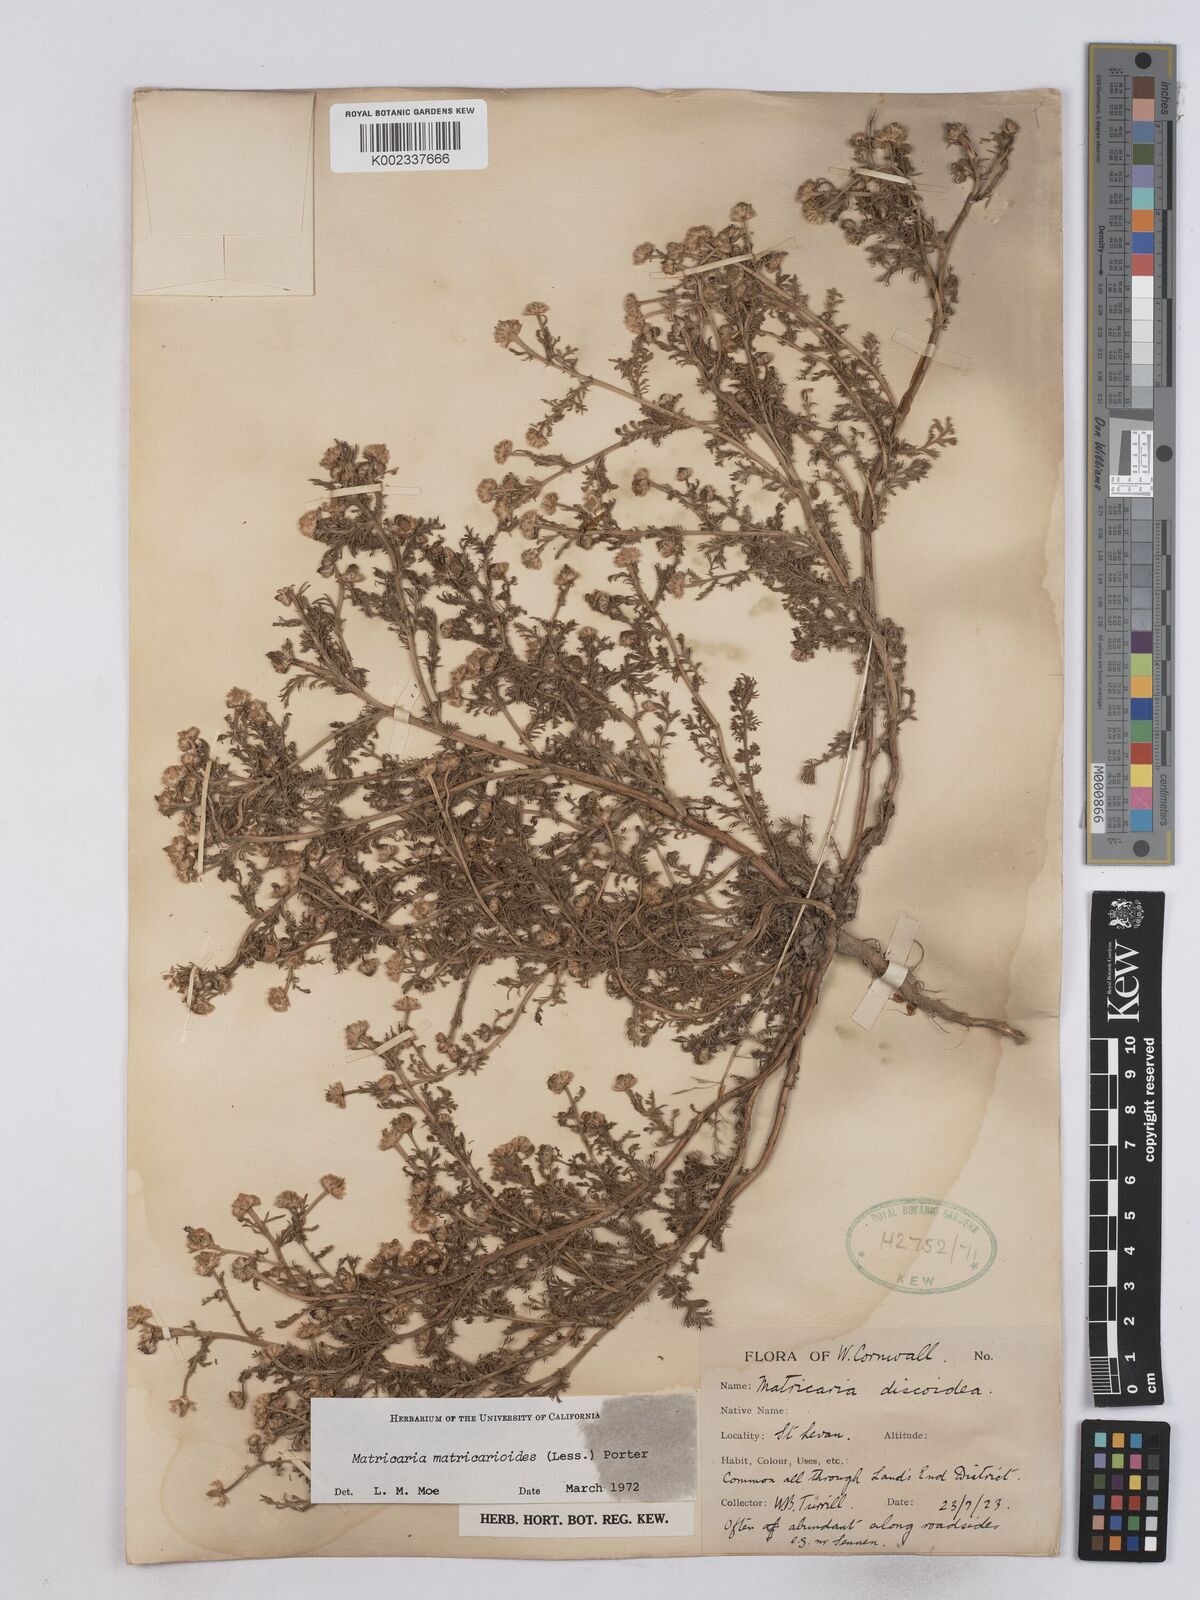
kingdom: Plantae
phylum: Tracheophyta
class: Magnoliopsida
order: Asterales
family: Asteraceae
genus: Matricaria
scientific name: Matricaria discoidea
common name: Disc mayweed
